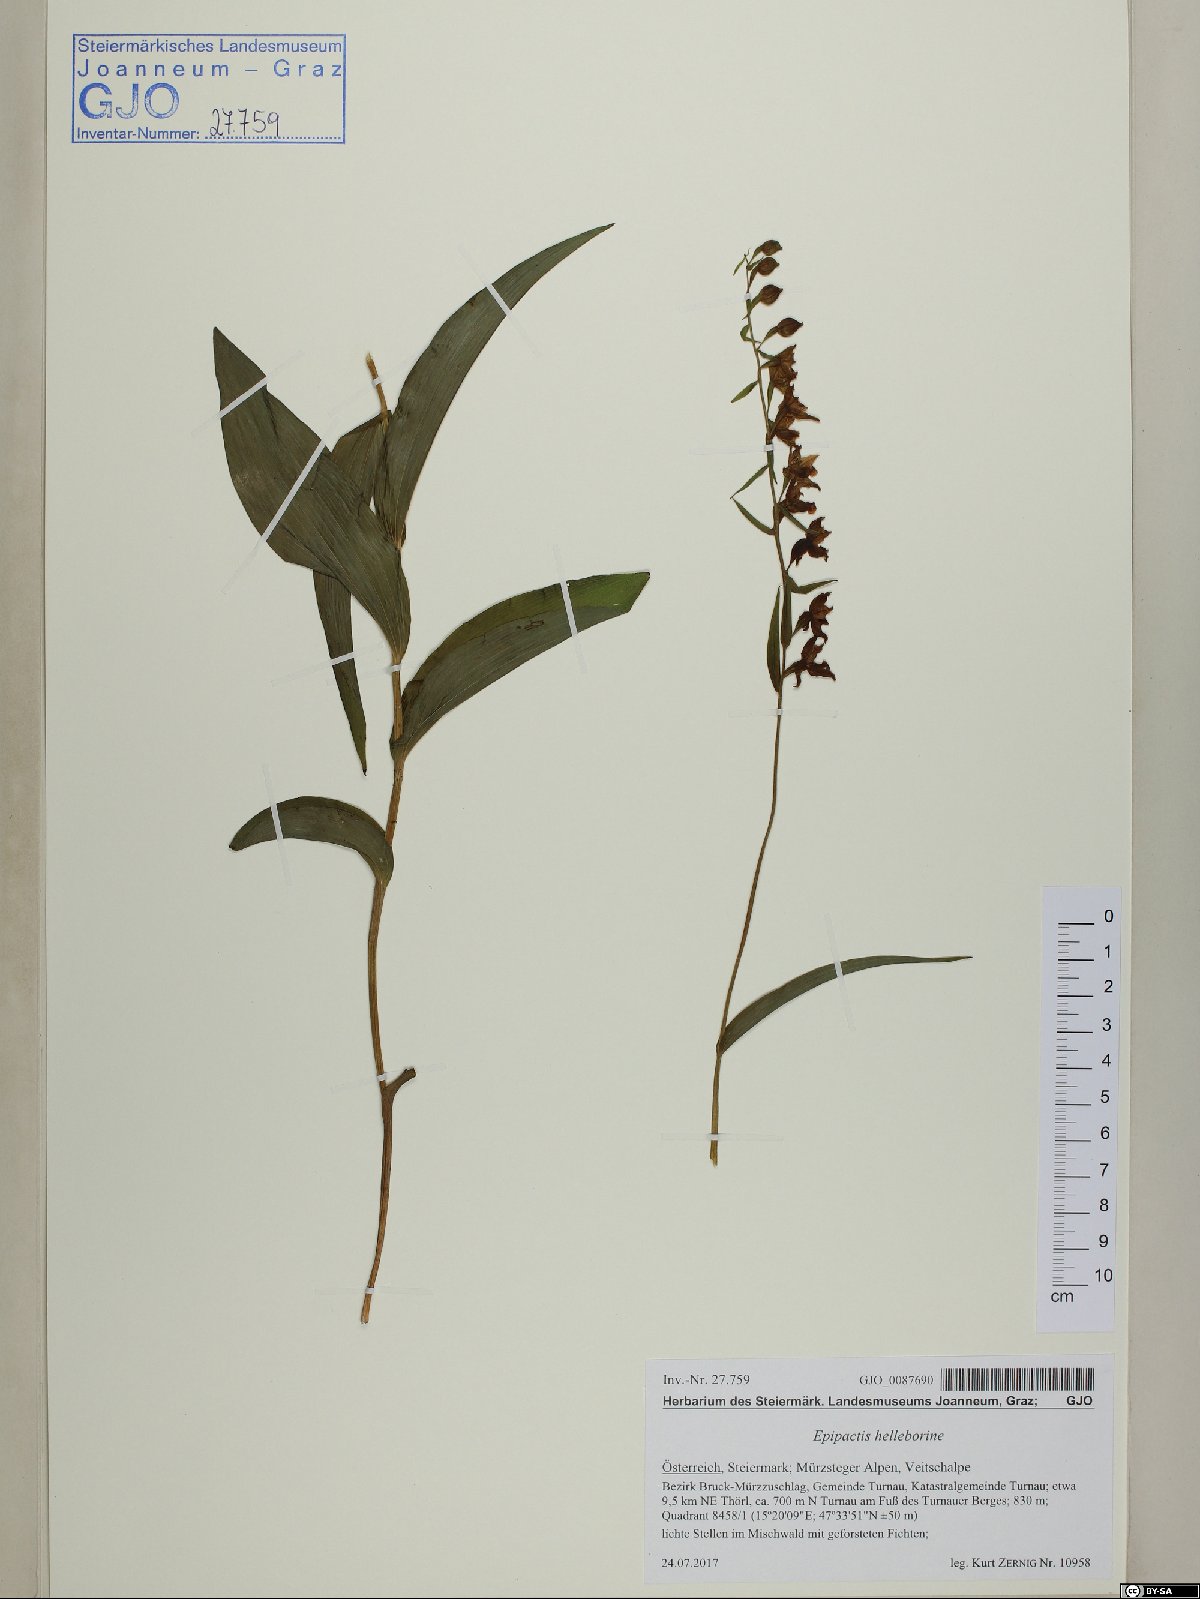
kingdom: Plantae
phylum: Tracheophyta
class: Liliopsida
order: Asparagales
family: Orchidaceae
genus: Epipactis
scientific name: Epipactis helleborine
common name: Broad-leaved helleborine
